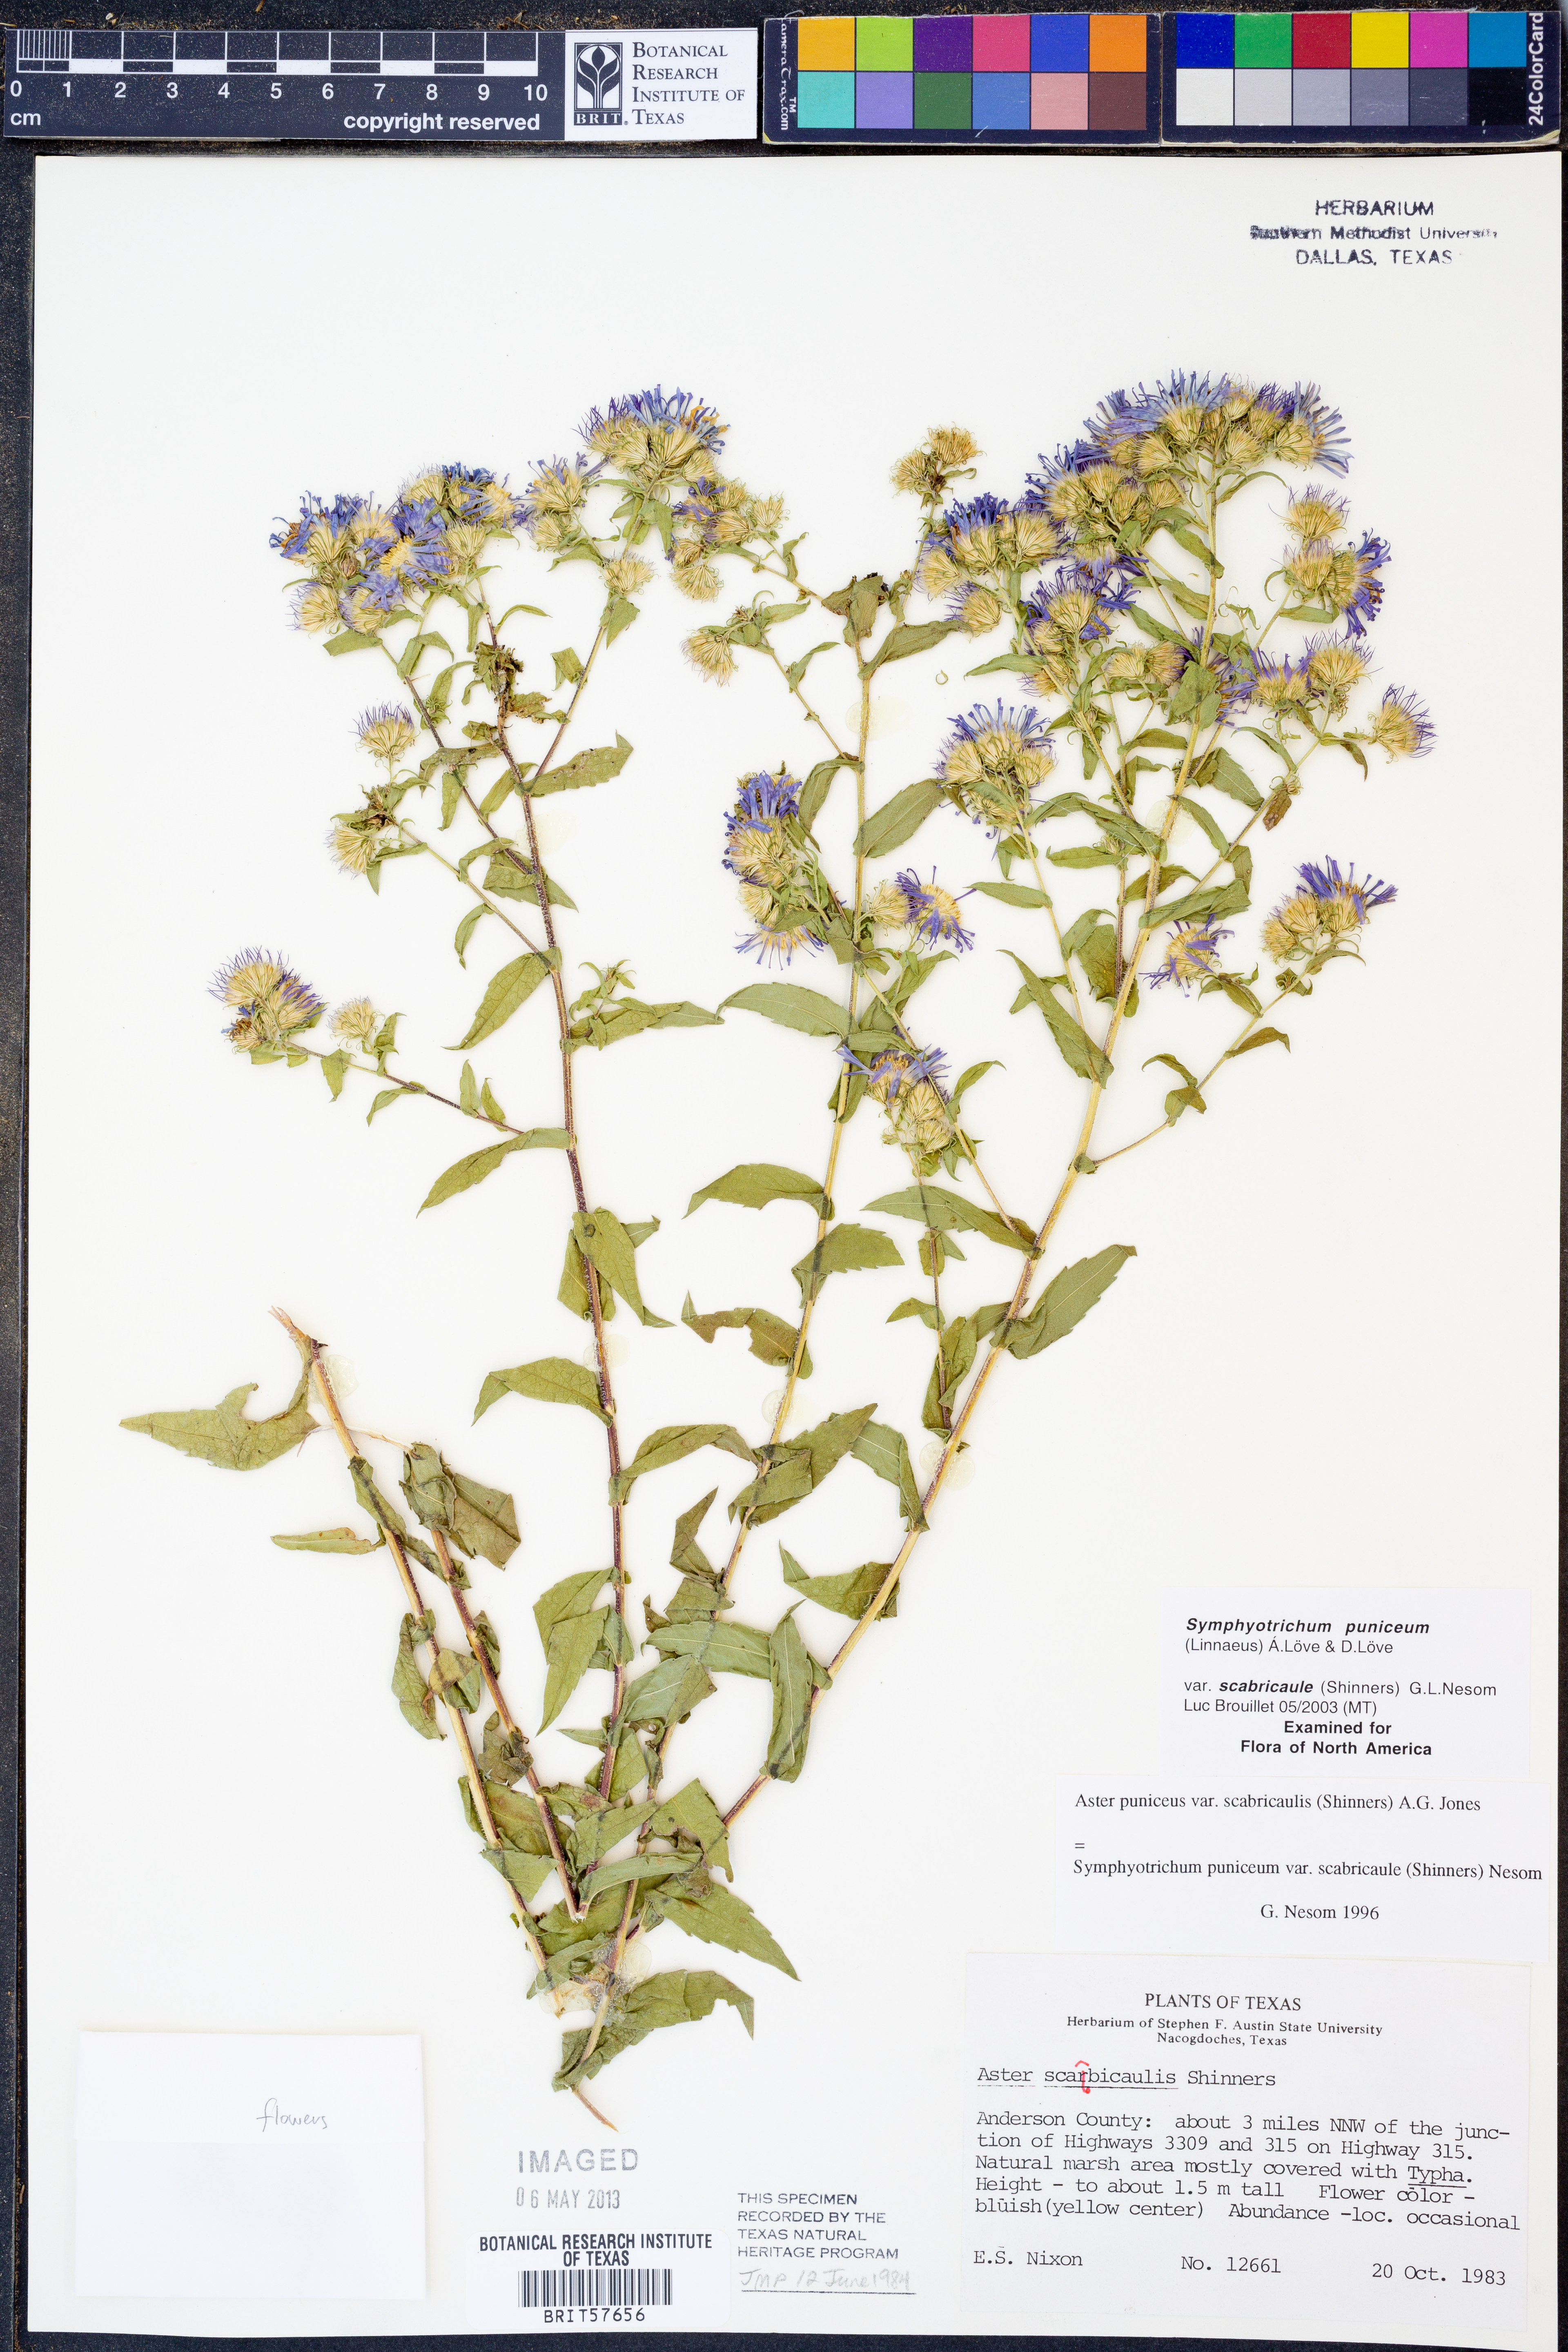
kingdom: Plantae
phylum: Tracheophyta
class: Magnoliopsida
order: Asterales
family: Asteraceae
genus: Symphyotrichum
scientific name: Symphyotrichum puniceum
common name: Bog aster
